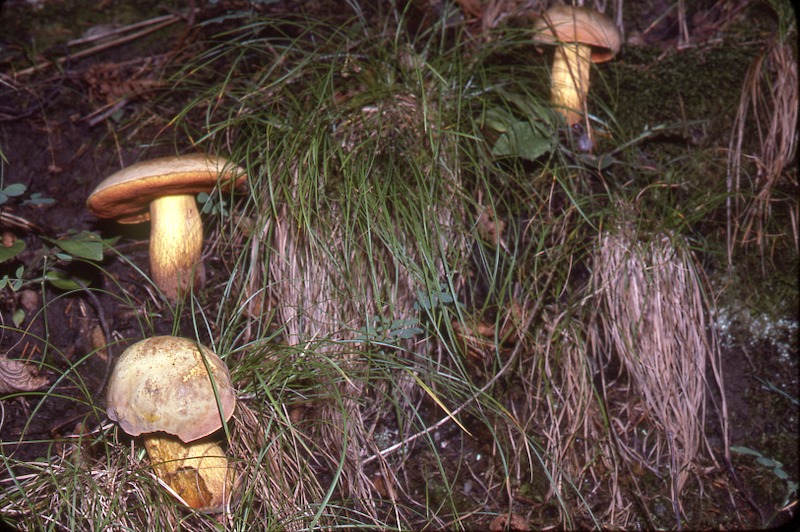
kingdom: Fungi
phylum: Basidiomycota
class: Agaricomycetes
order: Boletales
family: Boletaceae
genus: Suillellus
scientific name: Suillellus luridus
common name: Lurid bolete
